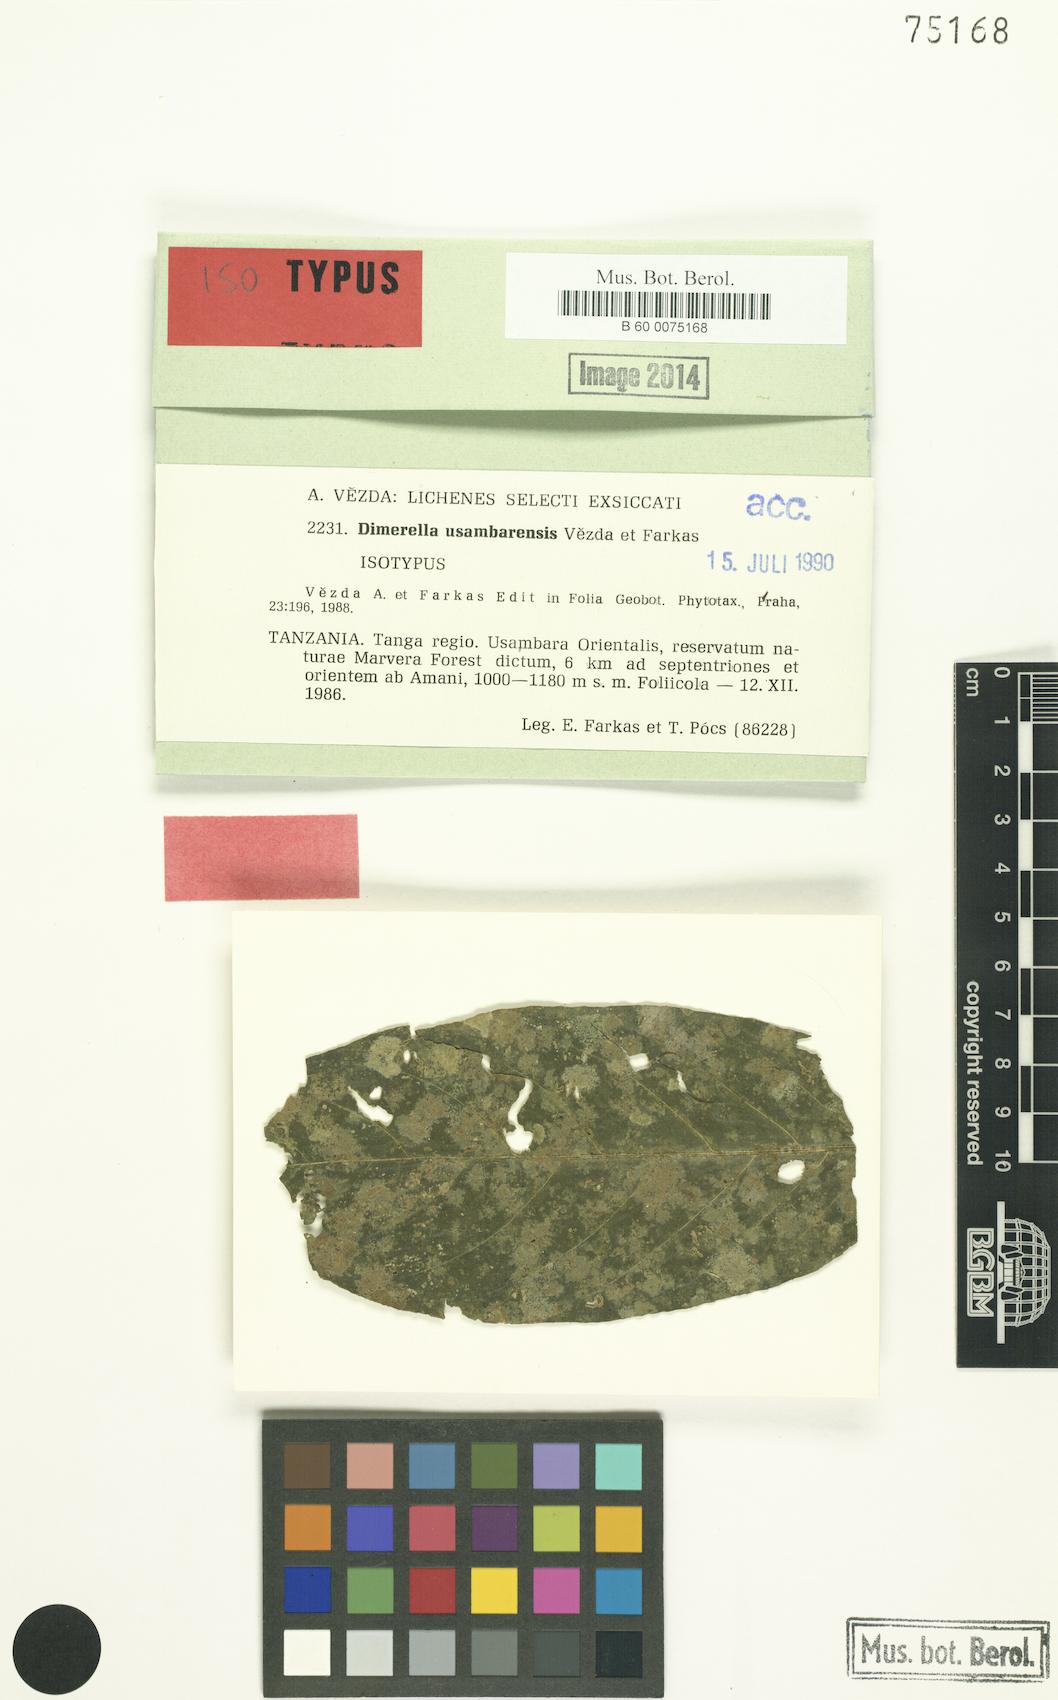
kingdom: Fungi
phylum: Ascomycota
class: Lecanoromycetes
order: Ostropales
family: Coenogoniaceae
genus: Coenogonium
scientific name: Coenogonium usambarense
